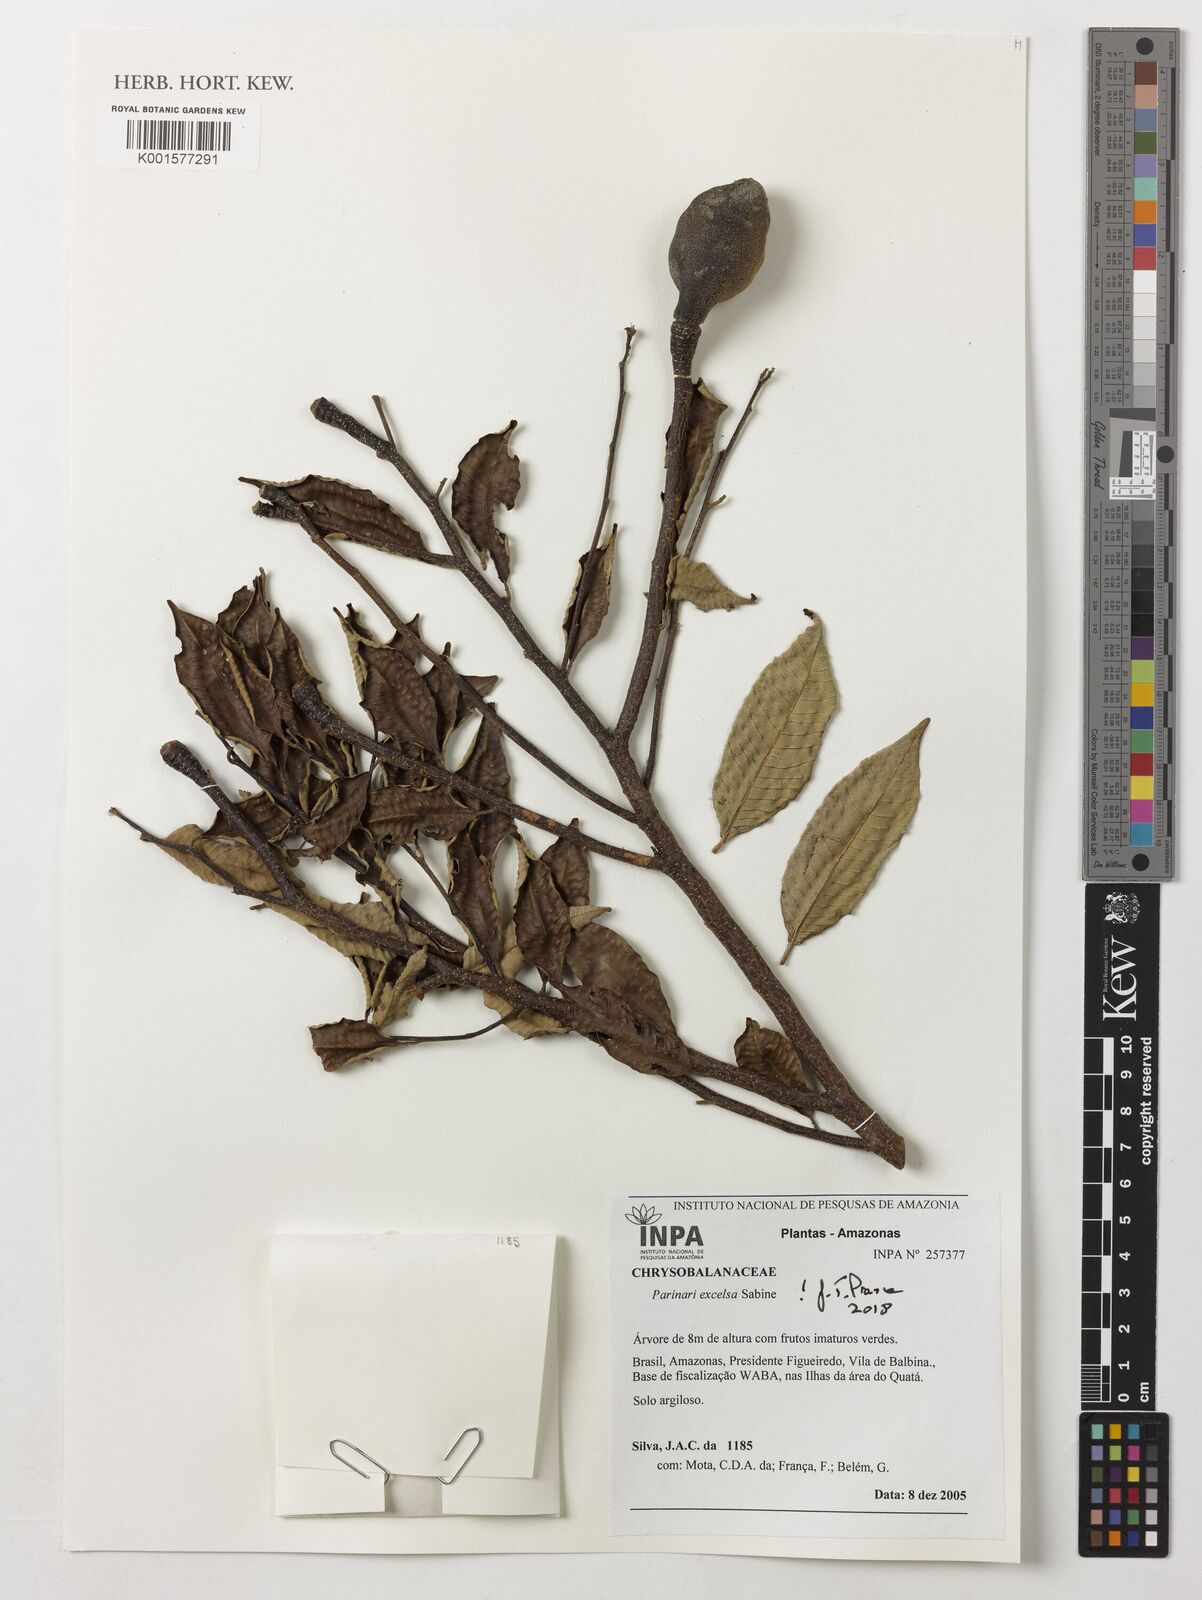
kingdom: Plantae
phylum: Tracheophyta
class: Magnoliopsida
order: Malpighiales
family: Chrysobalanaceae
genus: Parinari
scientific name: Parinari excelsa
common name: Guinea-plum
